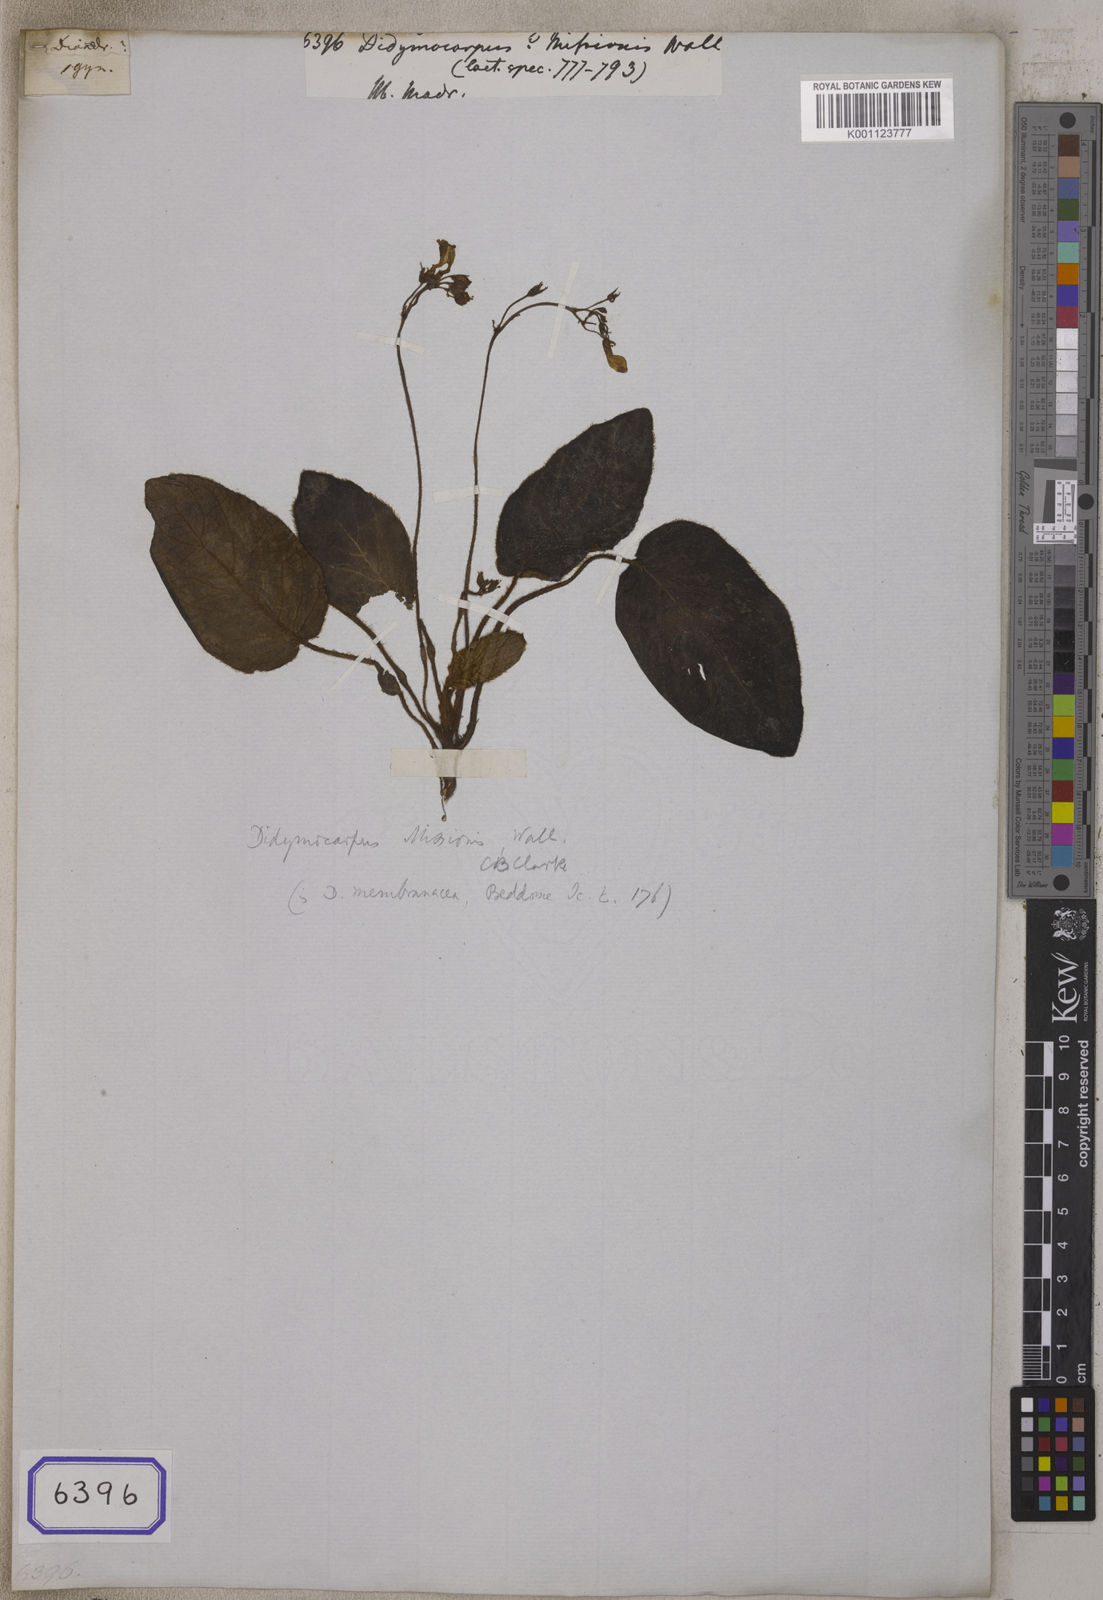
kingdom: Plantae
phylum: Tracheophyta
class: Magnoliopsida
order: Lamiales
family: Gesneriaceae
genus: Didymocarpus
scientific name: Didymocarpus
